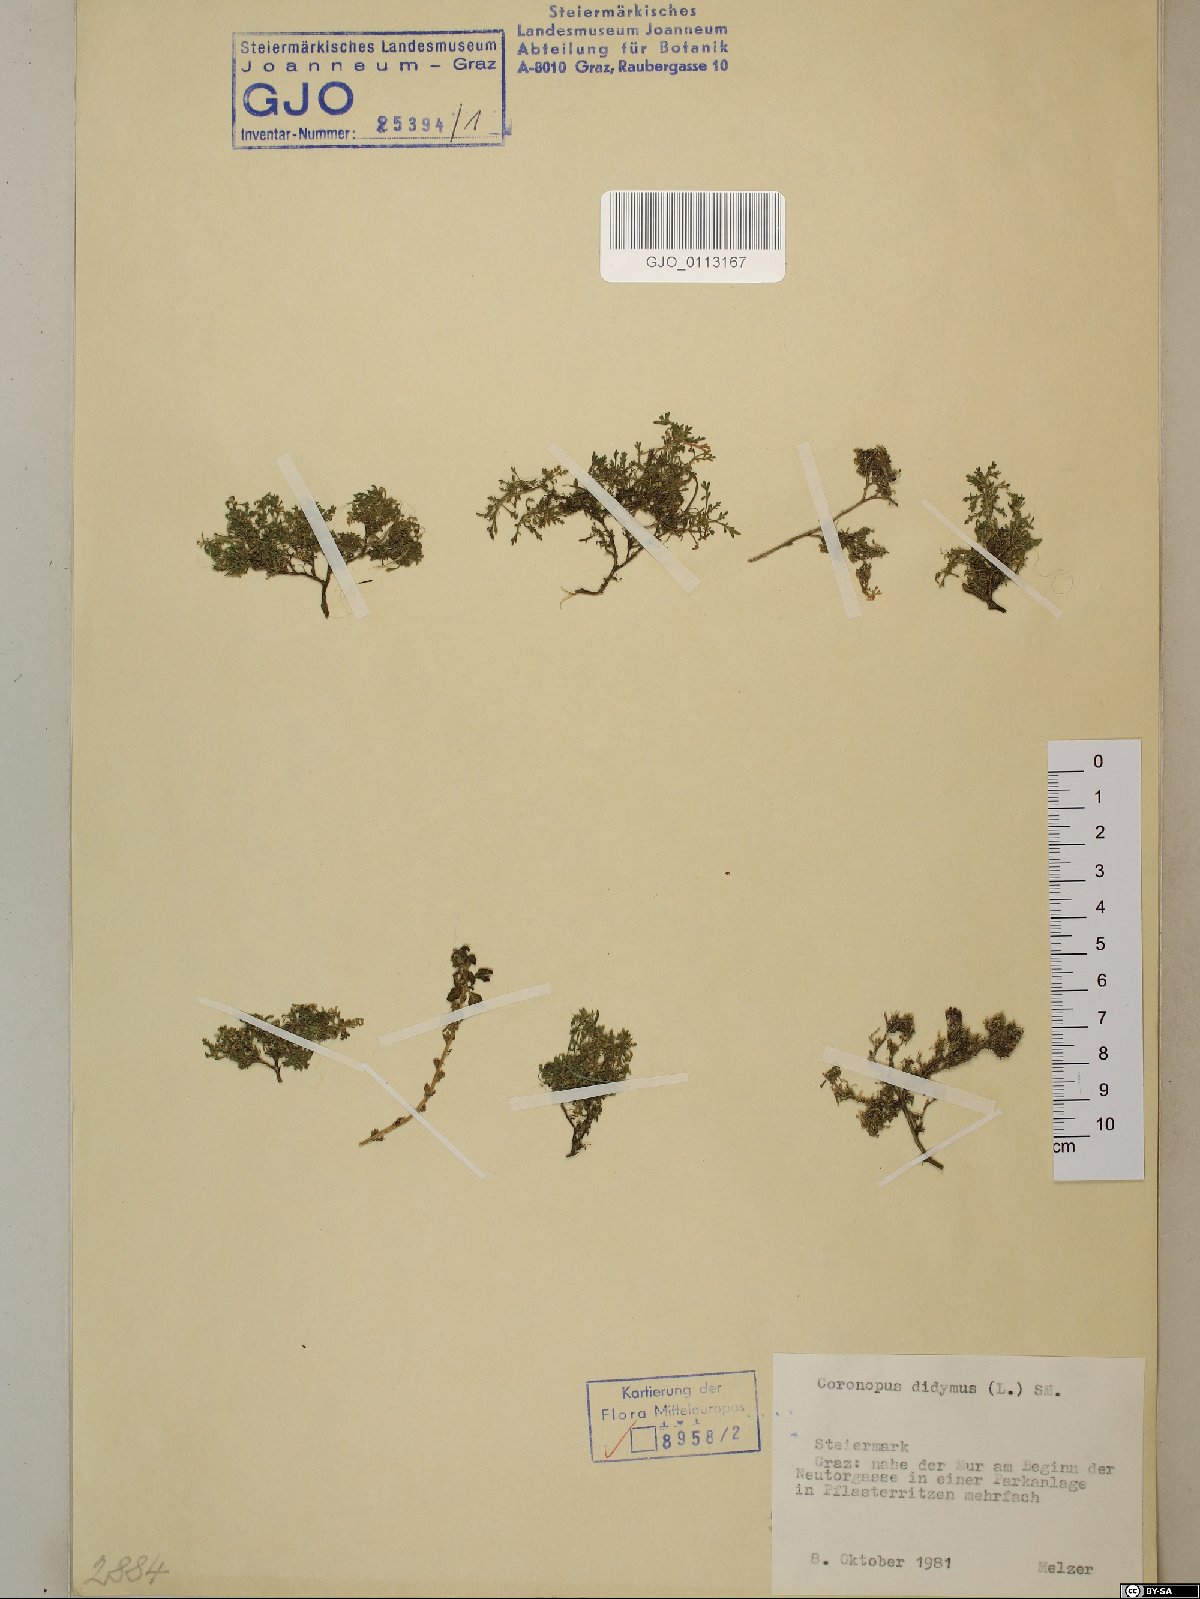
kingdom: Plantae
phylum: Tracheophyta
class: Magnoliopsida
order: Brassicales
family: Brassicaceae
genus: Lepidium
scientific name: Lepidium didymum
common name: Lesser swinecress
